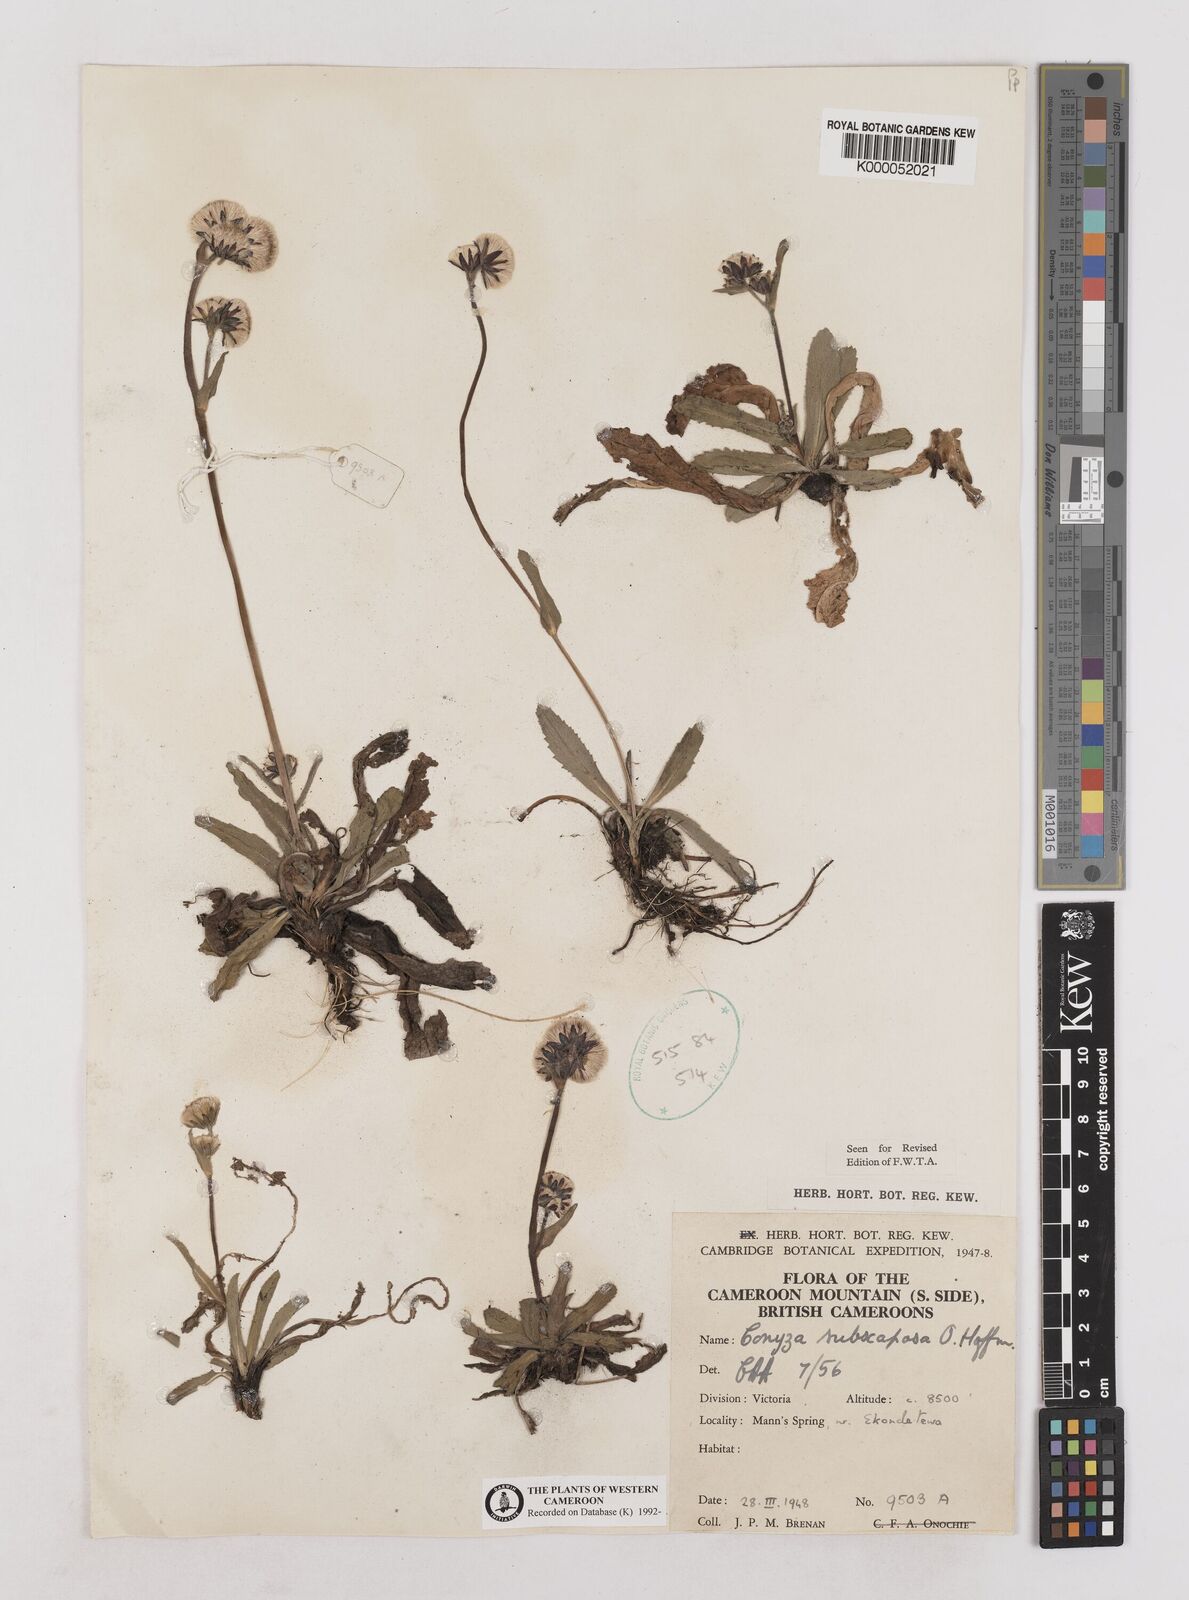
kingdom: Plantae
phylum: Tracheophyta
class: Magnoliopsida
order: Asterales
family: Asteraceae
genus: Eschenbachia
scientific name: Eschenbachia subscaposa
